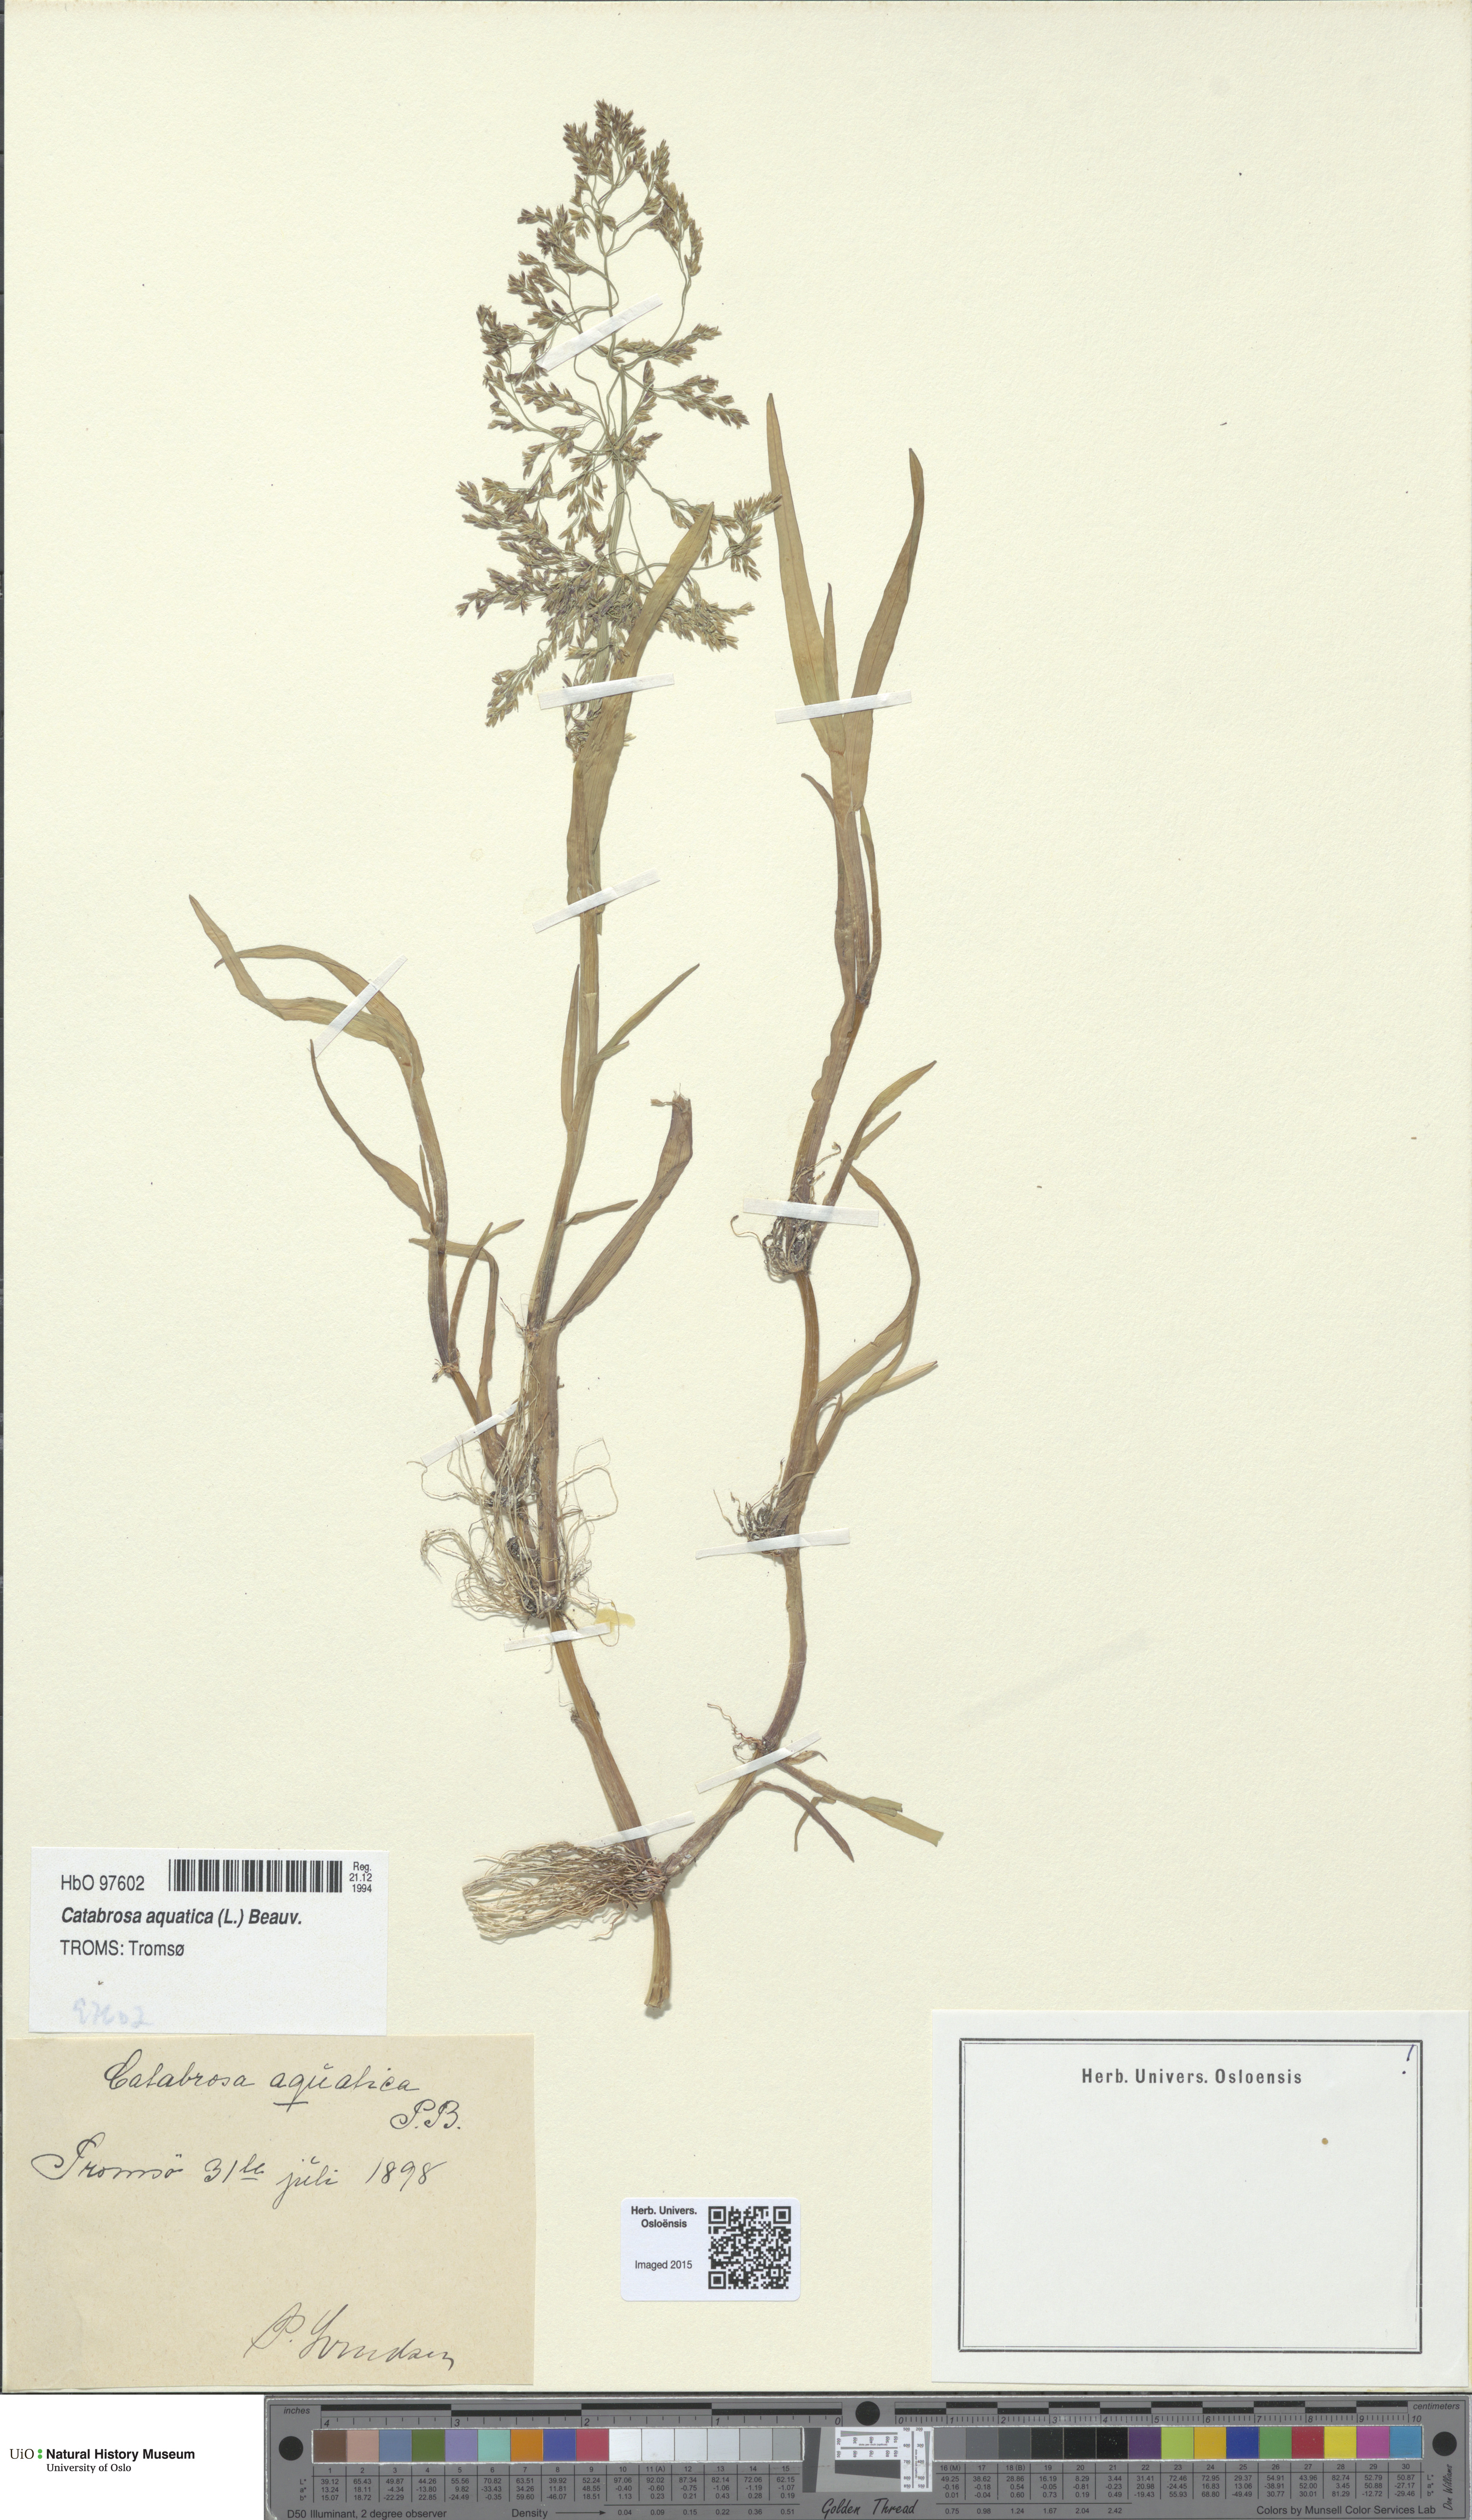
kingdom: Plantae
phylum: Tracheophyta
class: Liliopsida
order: Poales
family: Poaceae
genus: Catabrosa
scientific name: Catabrosa aquatica
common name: Whorl-grass
